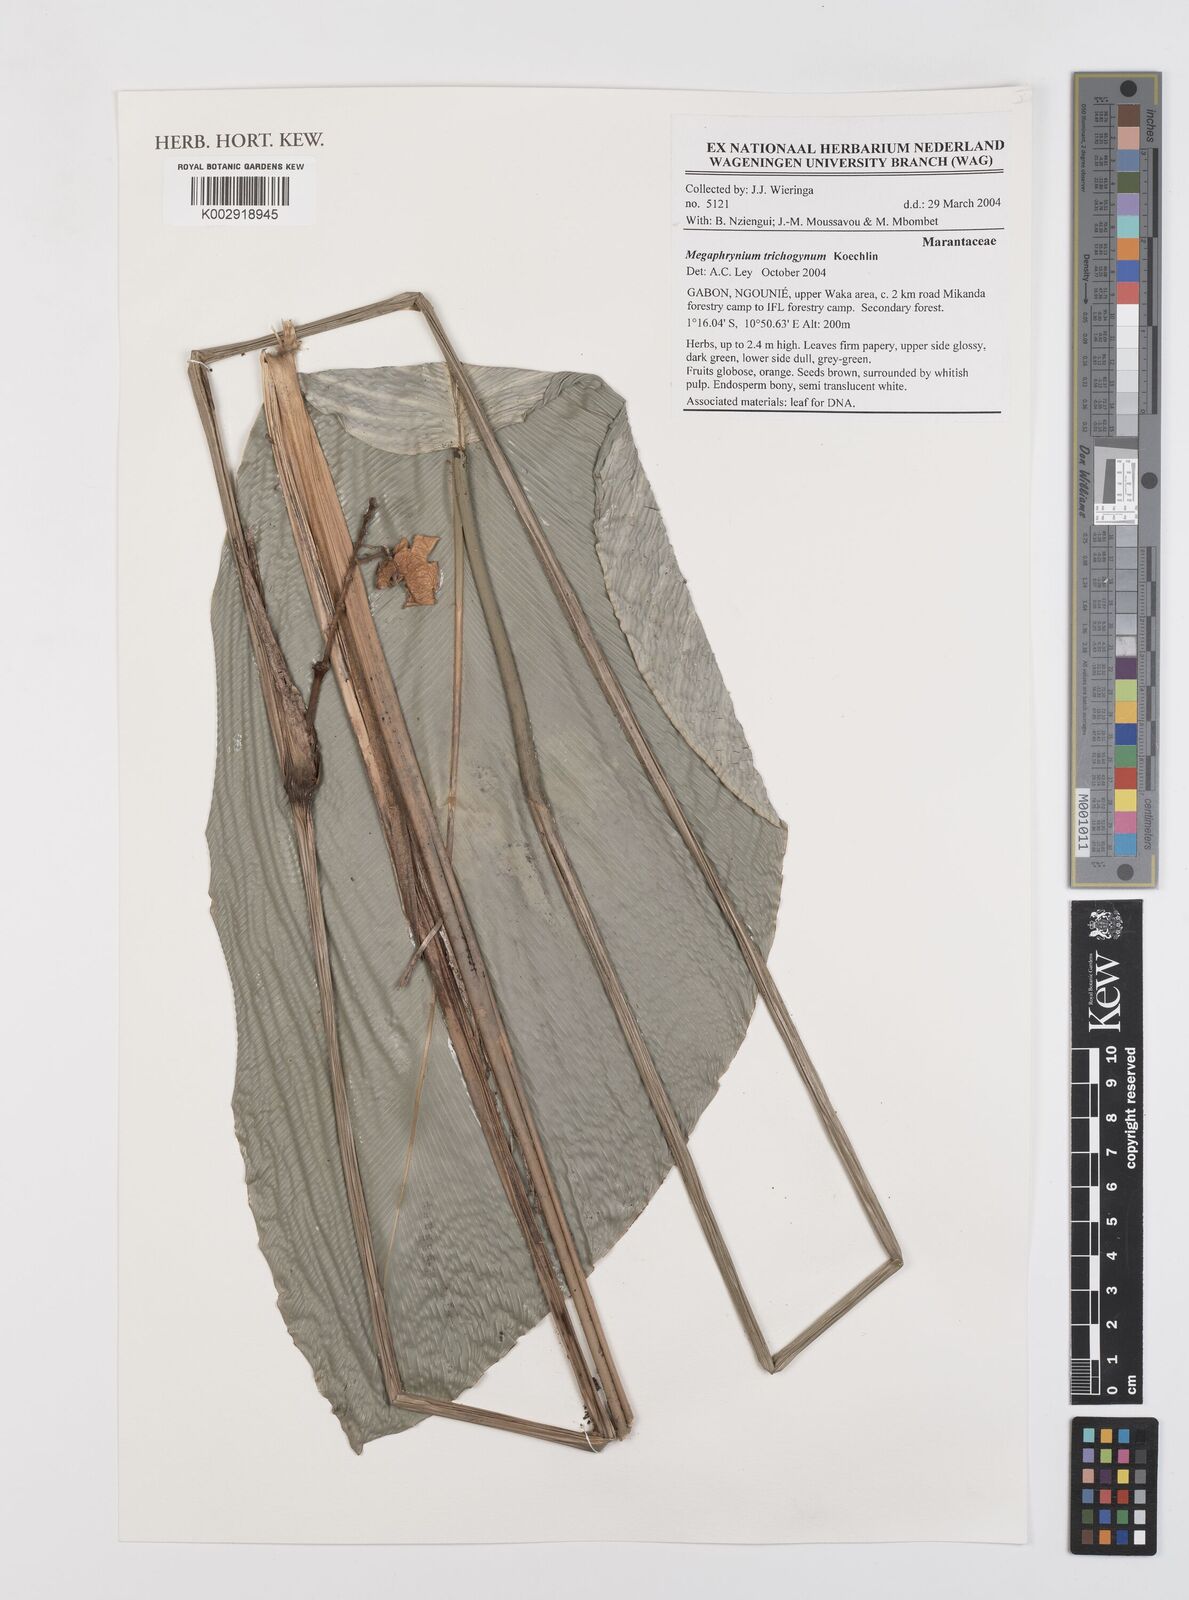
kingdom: Plantae
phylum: Tracheophyta
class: Liliopsida
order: Zingiberales
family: Marantaceae
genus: Megaphrynium
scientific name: Megaphrynium trichogynum
